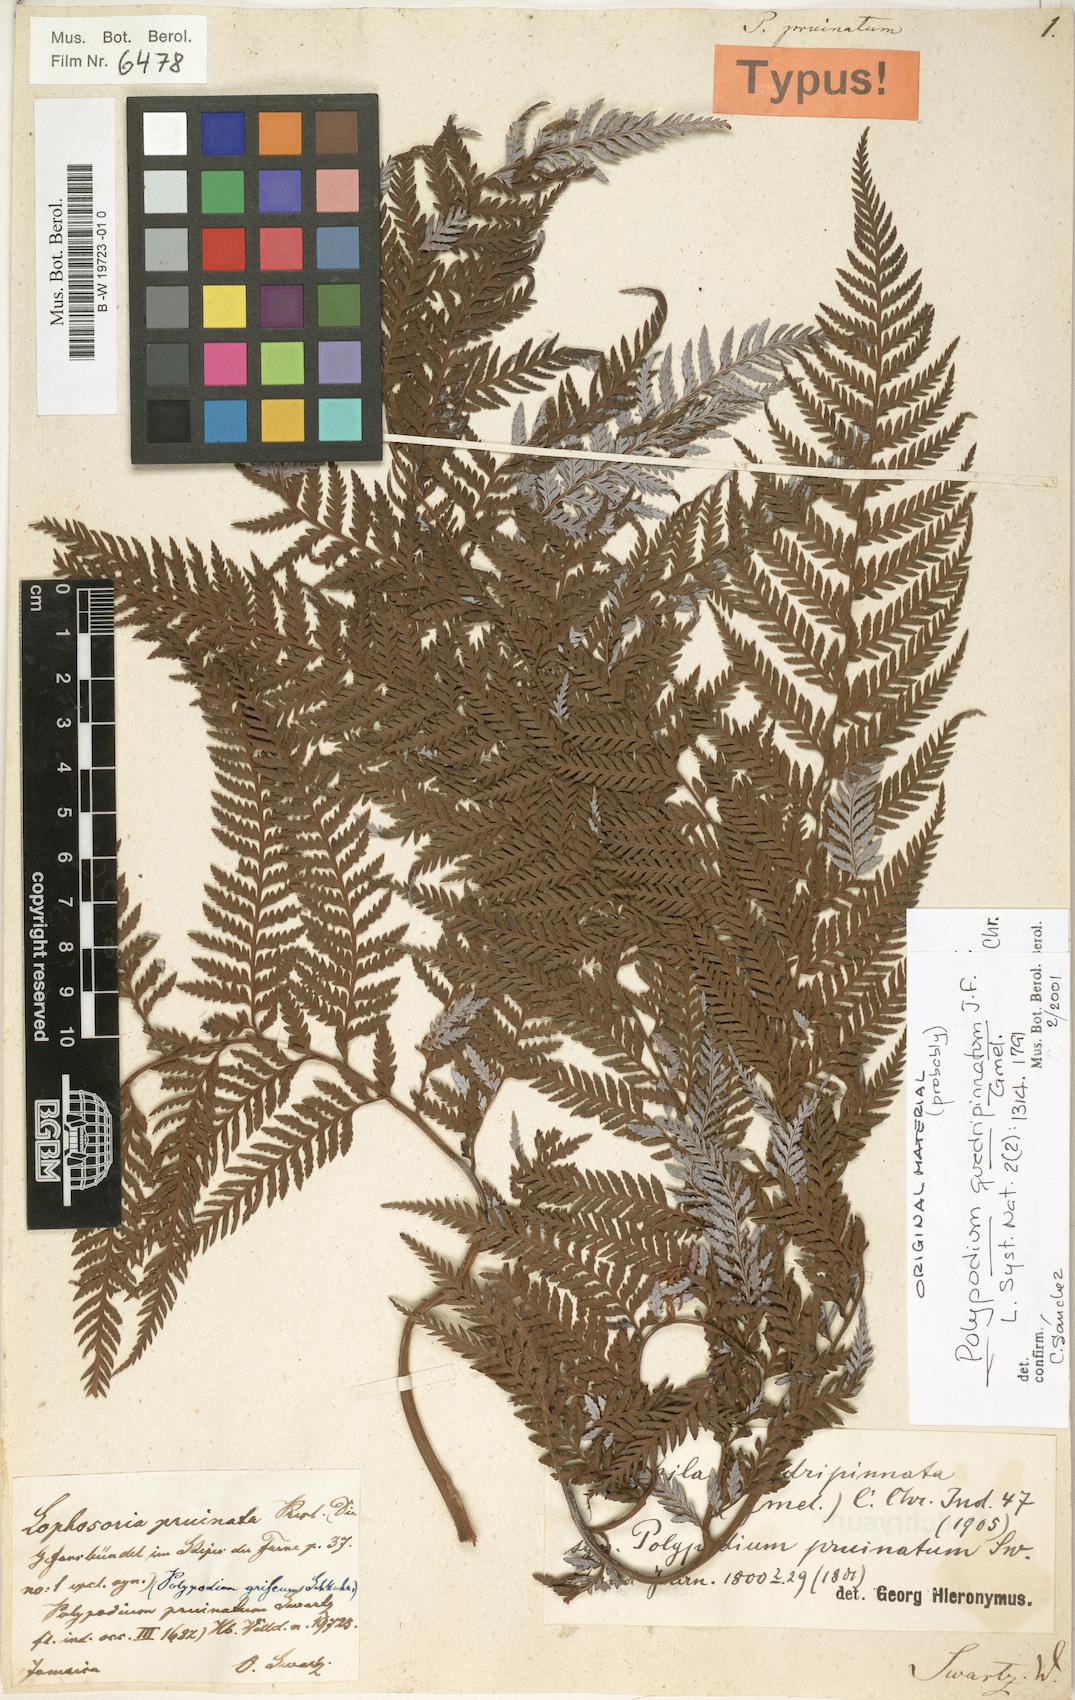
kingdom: Plantae
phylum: Tracheophyta
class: Polypodiopsida
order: Polypodiales
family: Polypodiaceae
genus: Ceradenia
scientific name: Ceradenia pruinosa
